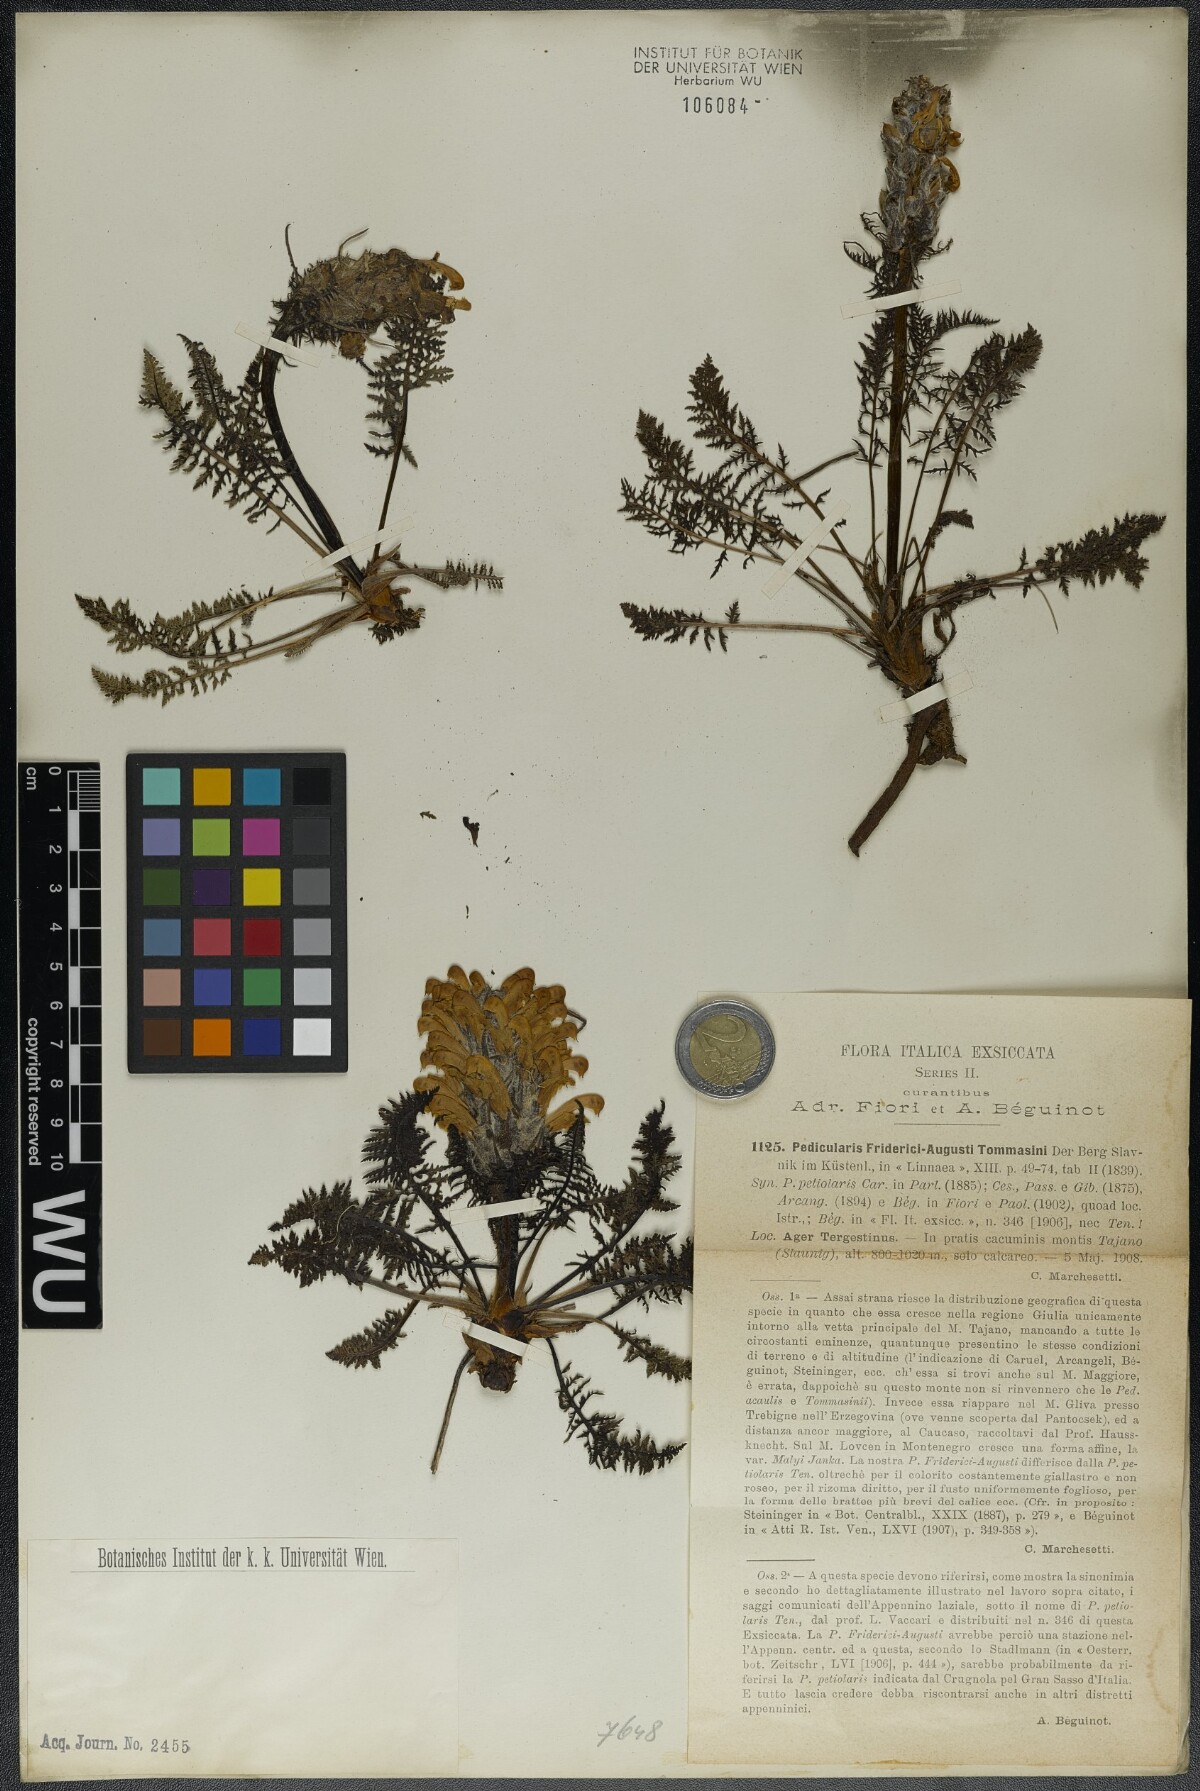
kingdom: Plantae
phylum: Tracheophyta
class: Magnoliopsida
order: Lamiales
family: Orobanchaceae
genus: Pedicularis
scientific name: Pedicularis friderici-augusti
